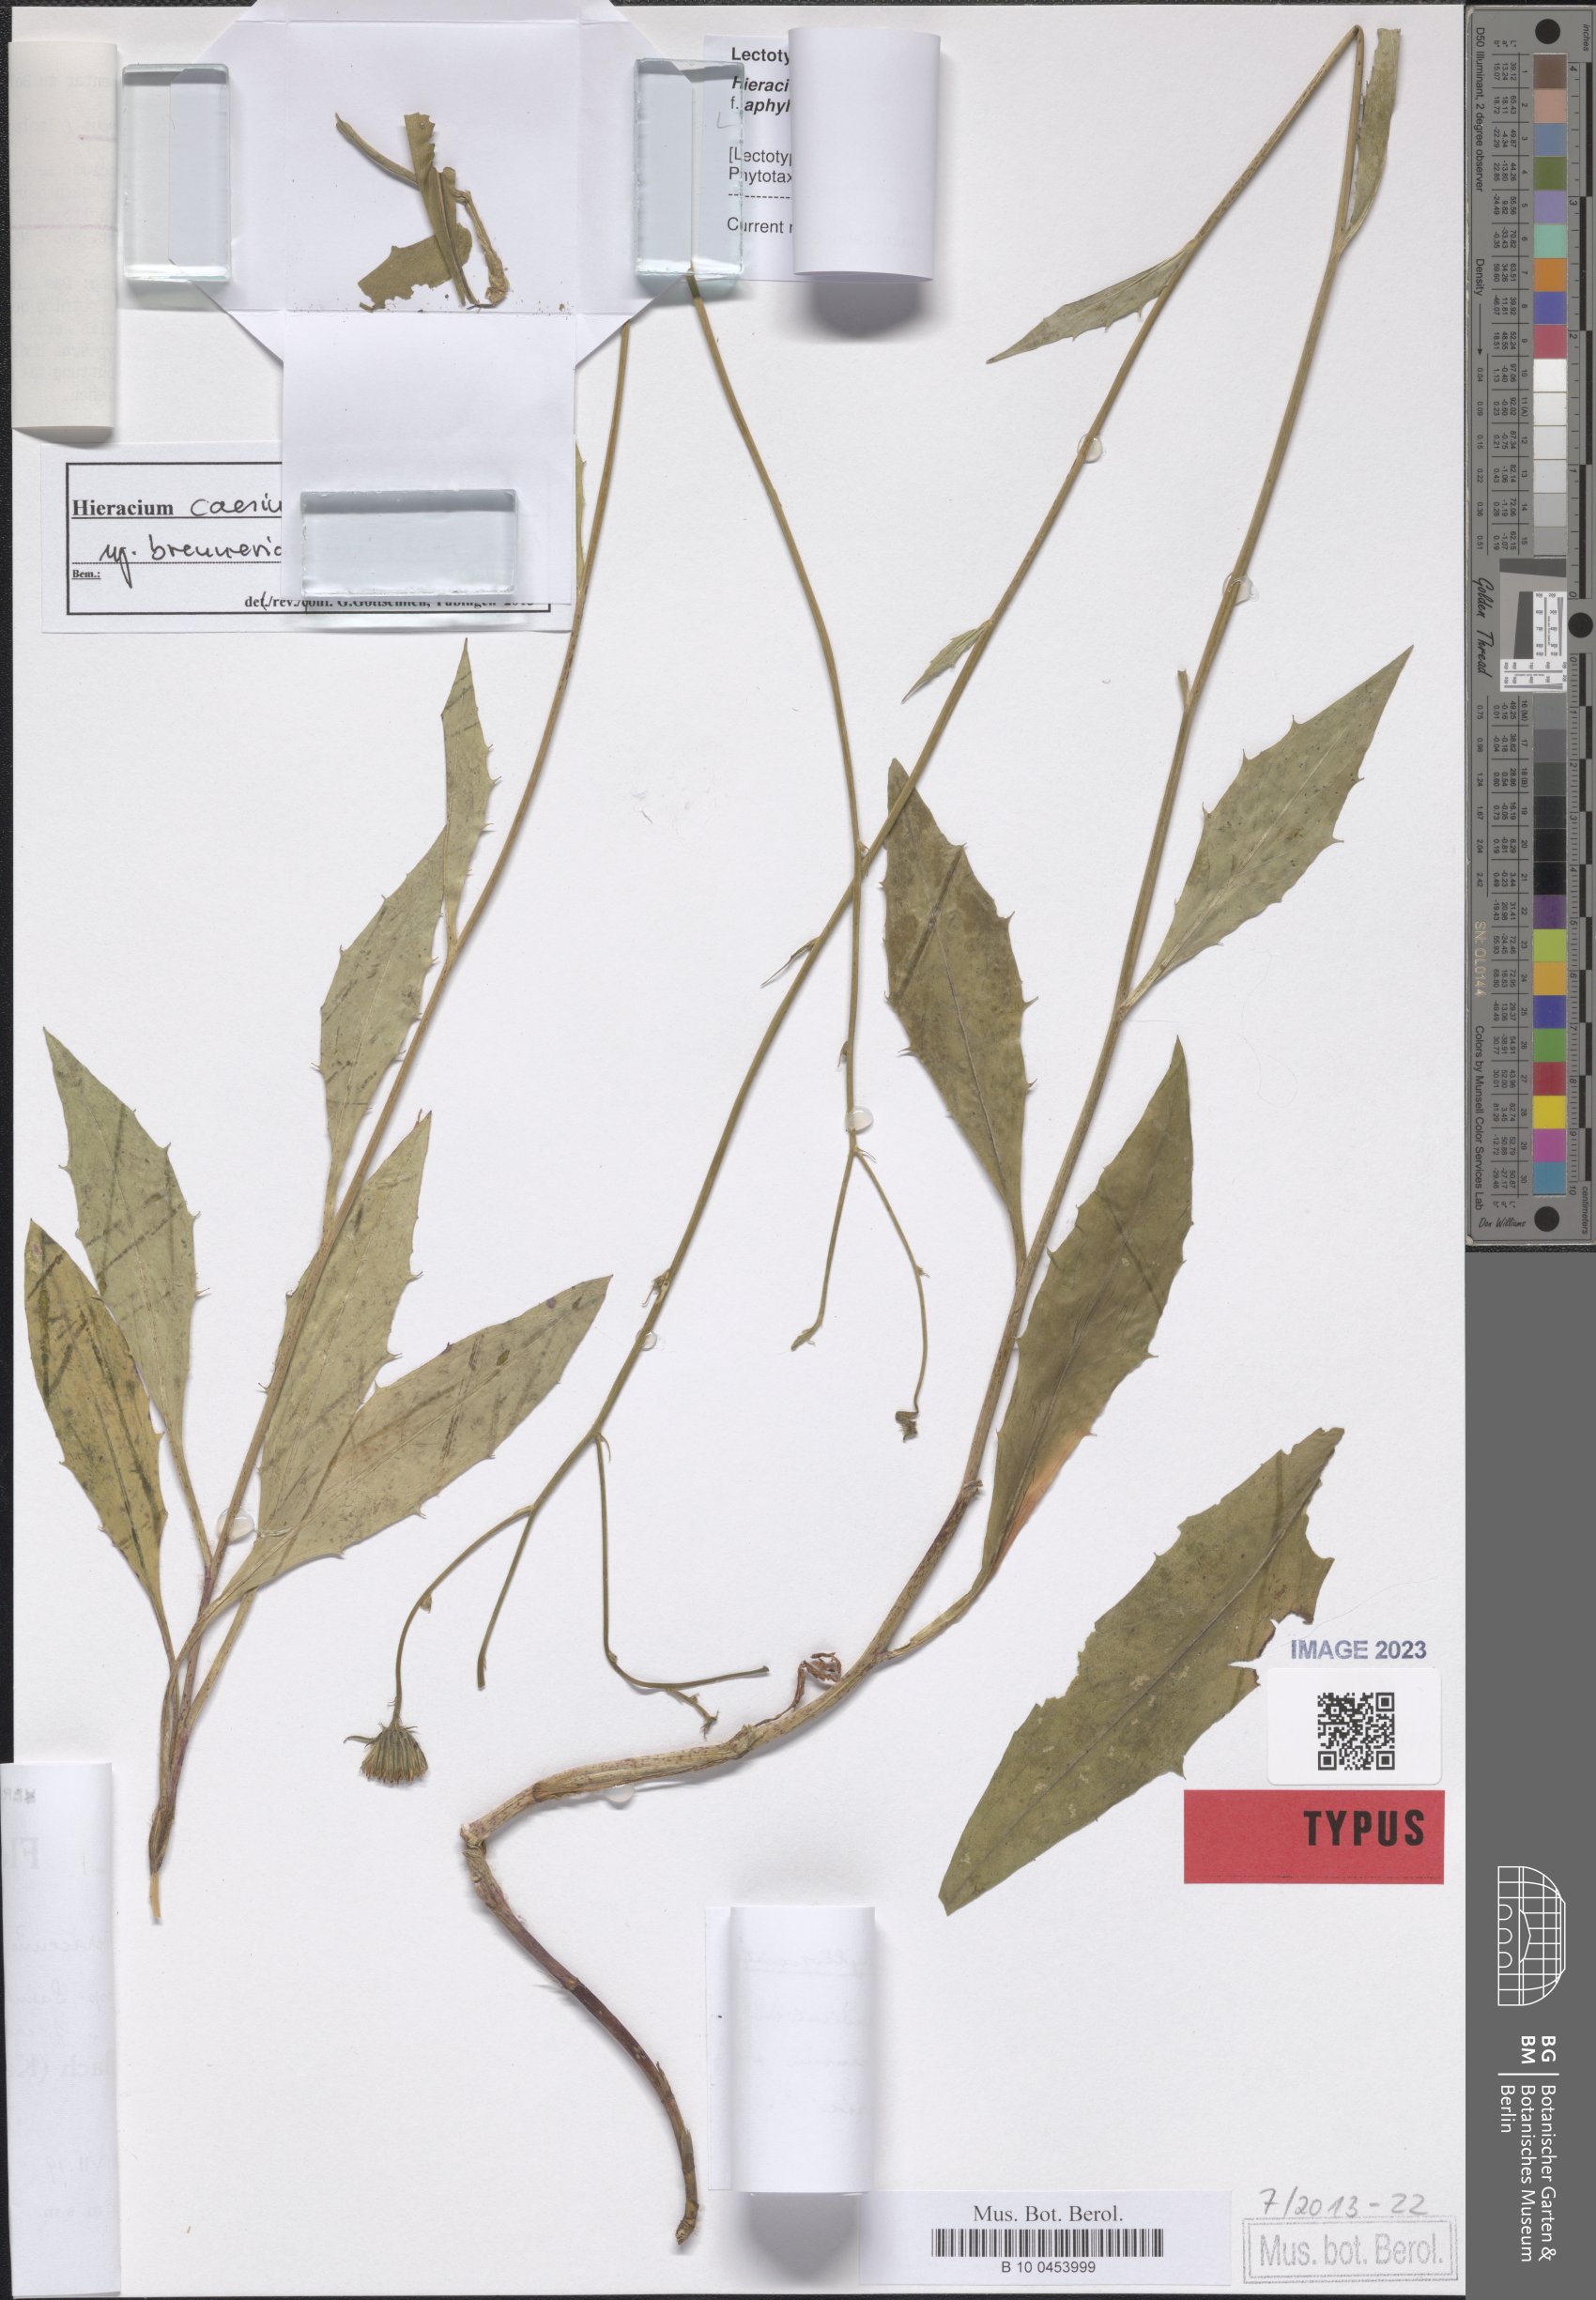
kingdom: Plantae
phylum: Tracheophyta
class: Magnoliopsida
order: Asterales
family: Asteraceae
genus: Hieracium
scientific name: Hieracium caesium
